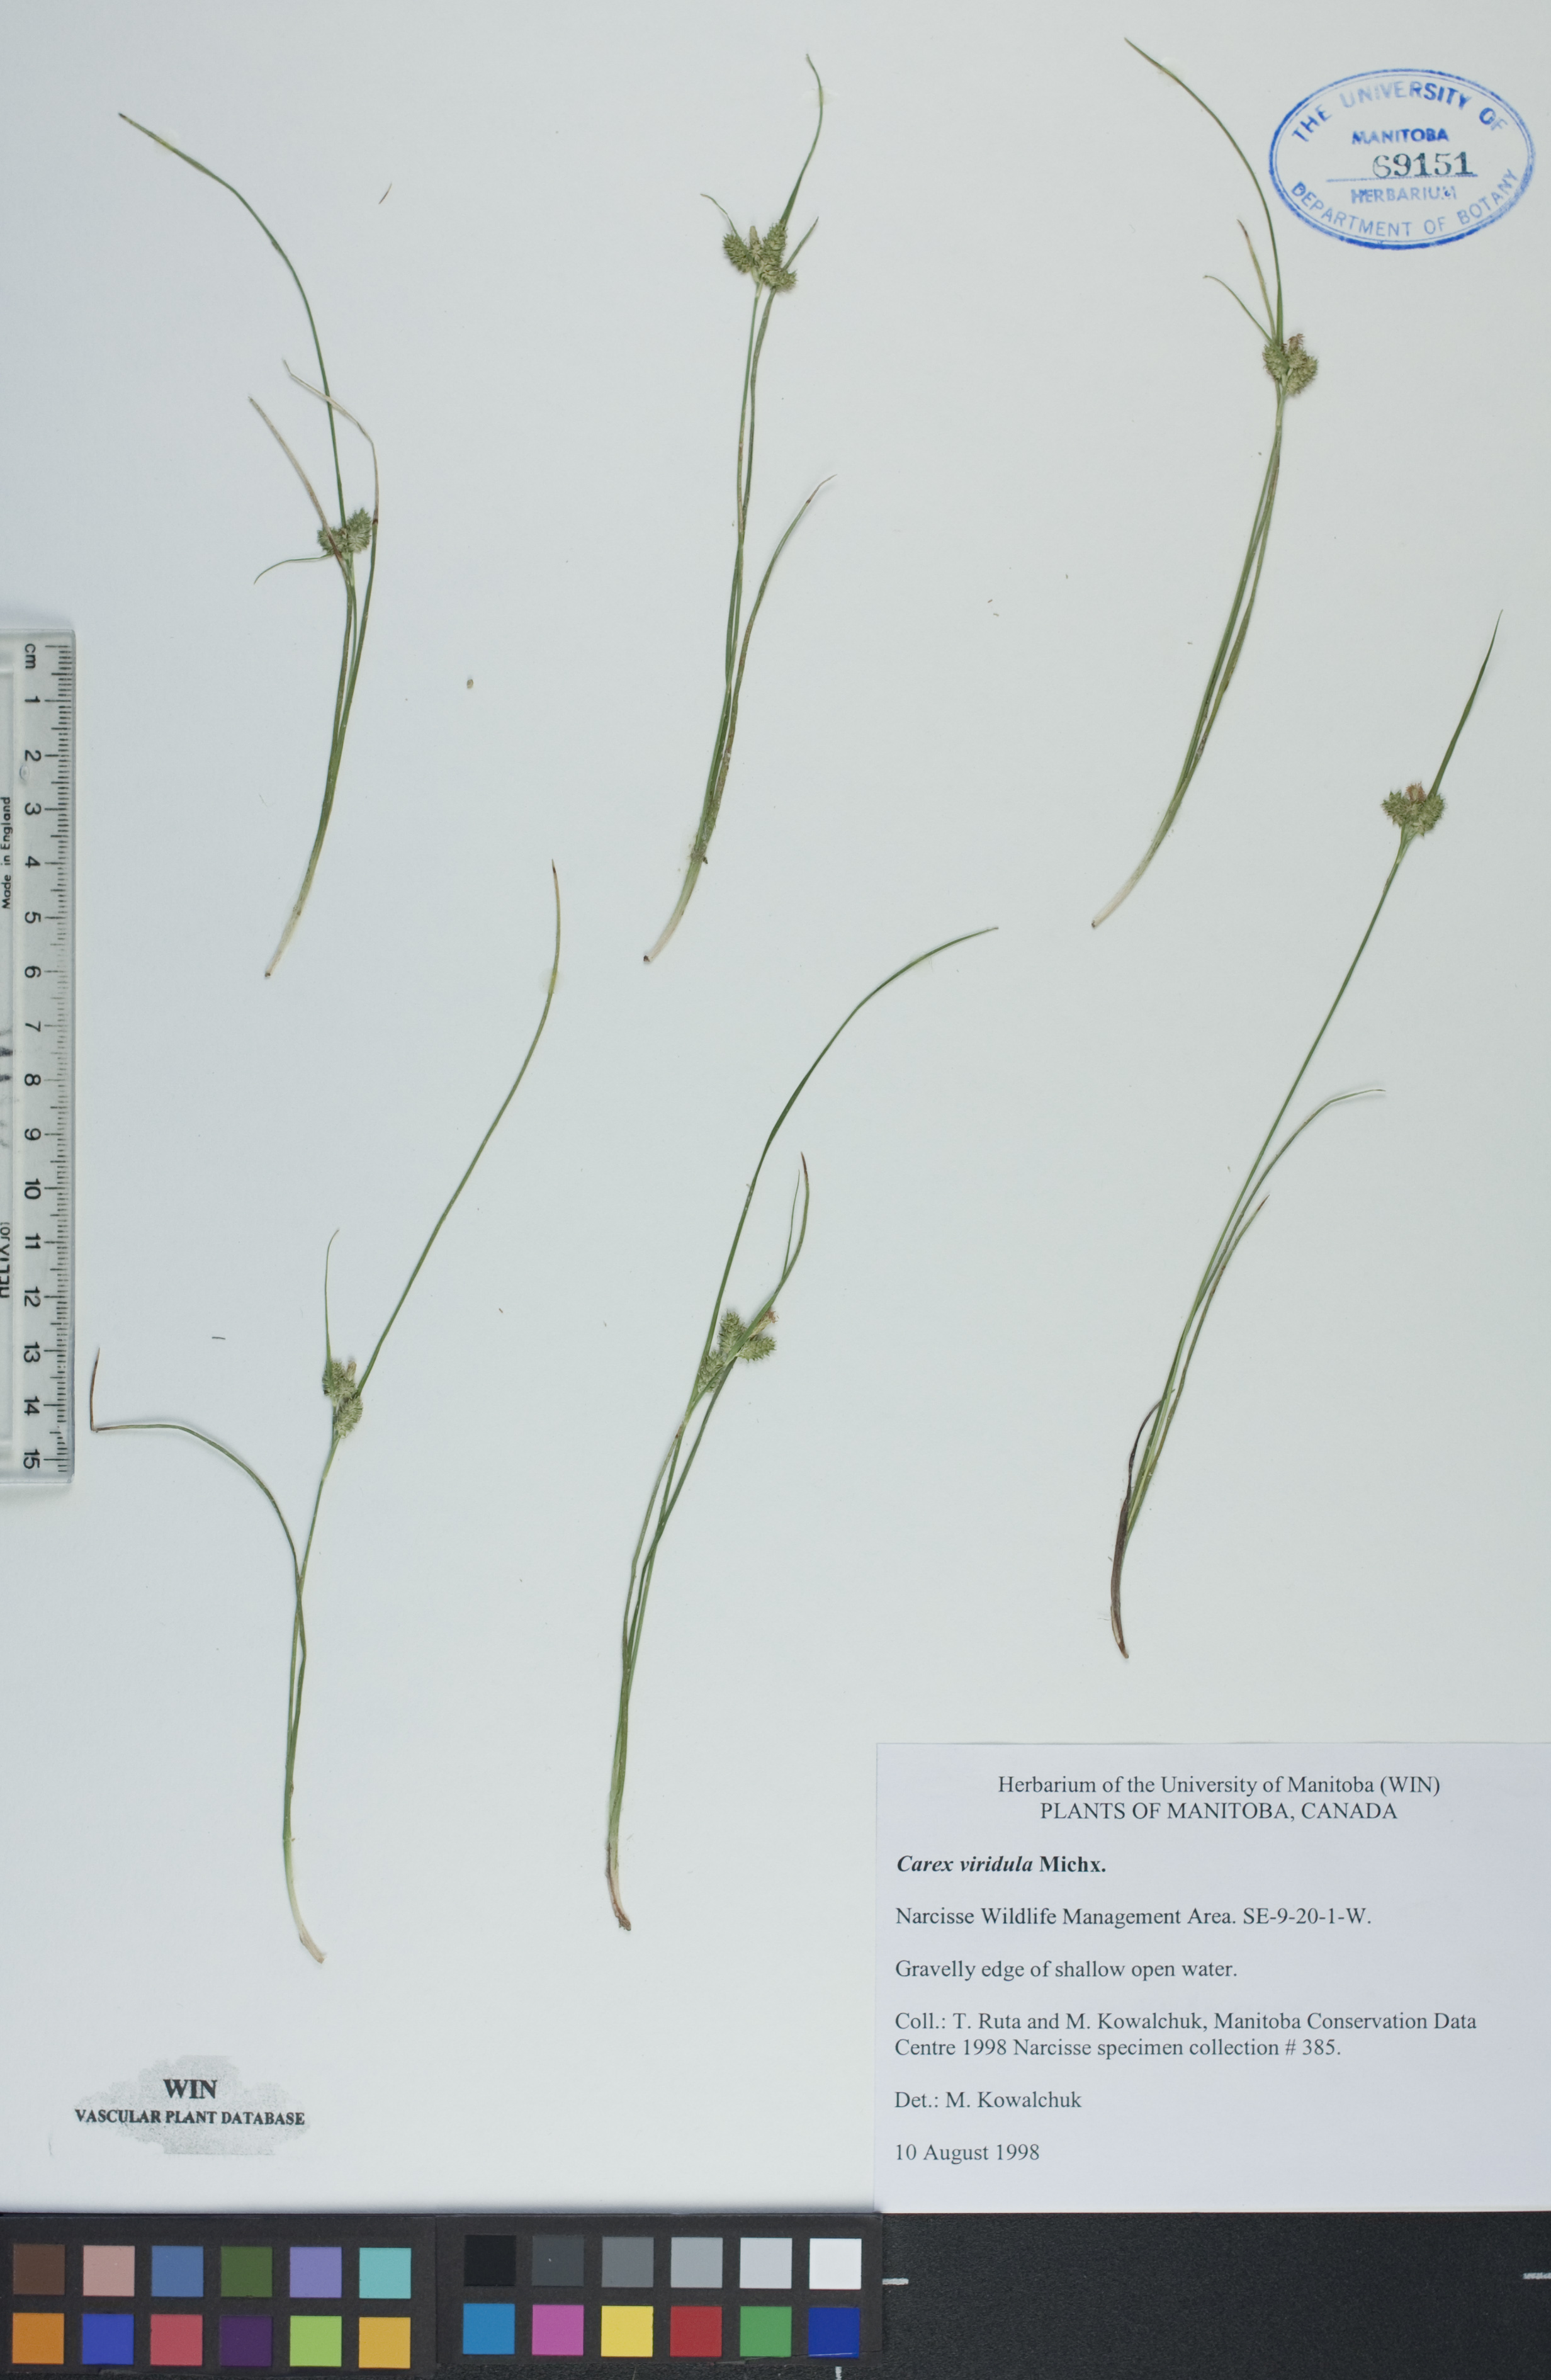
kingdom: Plantae
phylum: Tracheophyta
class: Liliopsida
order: Poales
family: Cyperaceae
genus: Carex
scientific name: Carex oederi
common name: Common & small-fruited yellow-sedge
